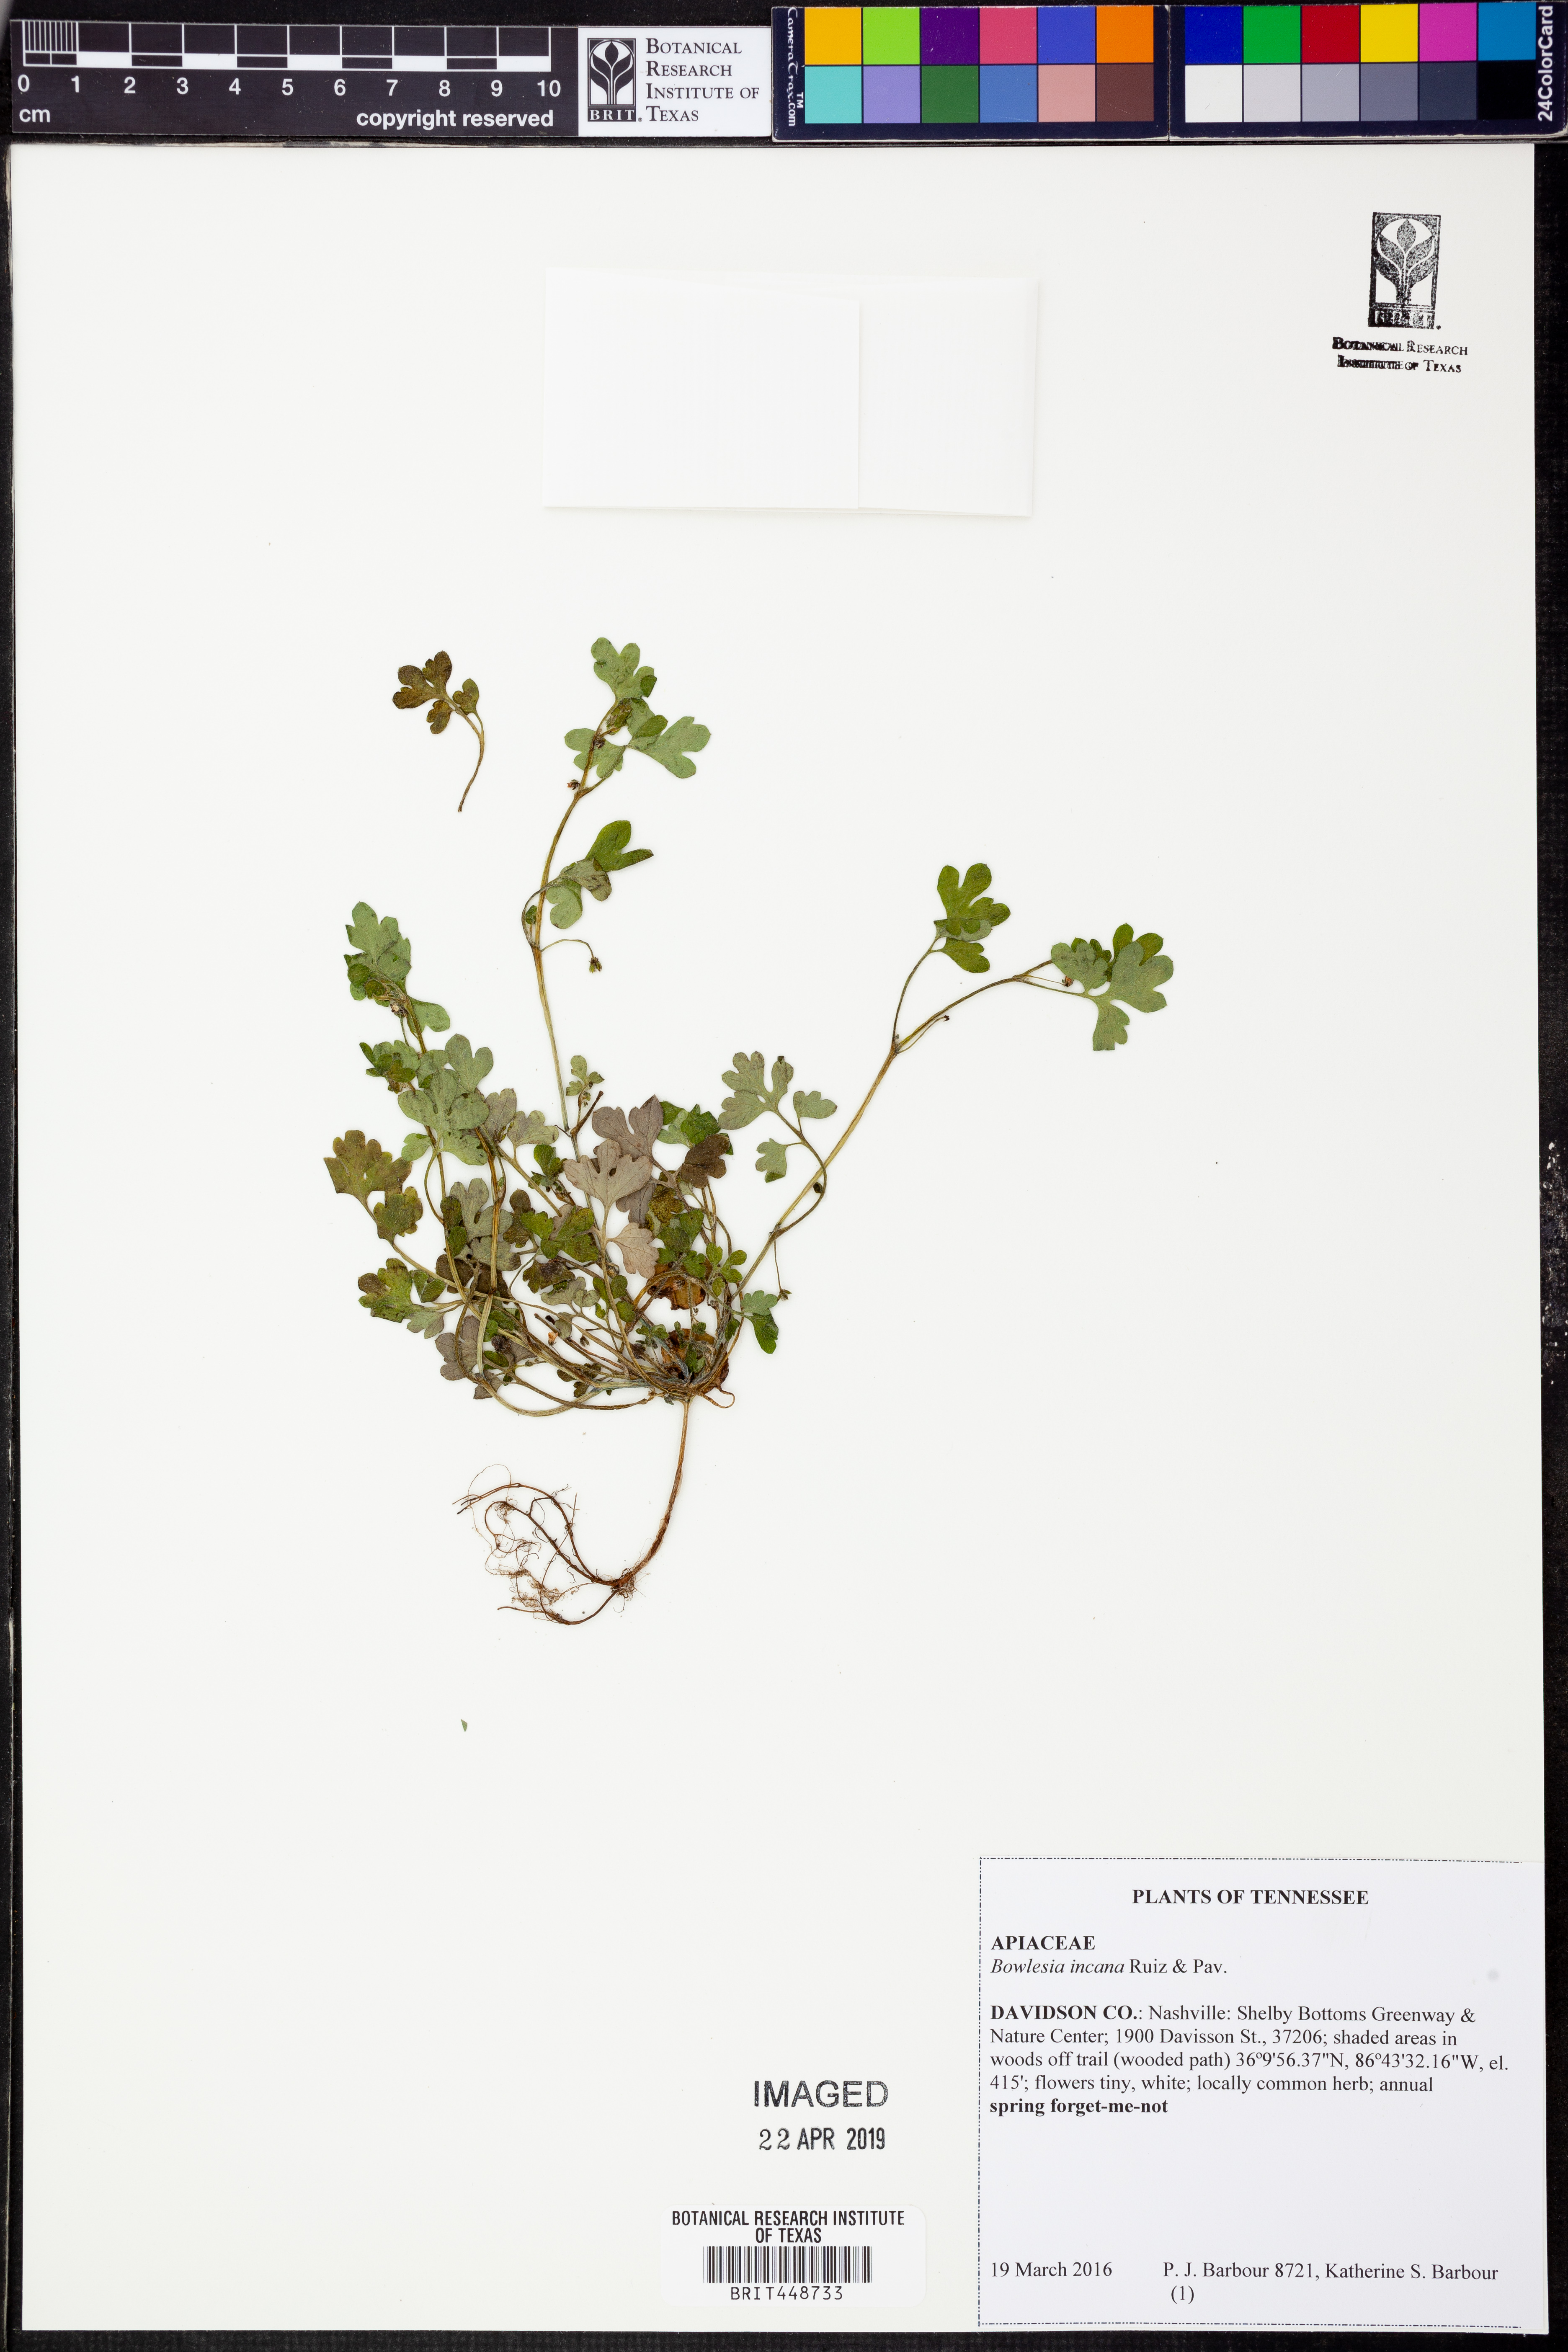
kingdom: Plantae
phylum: Tracheophyta
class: Magnoliopsida
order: Apiales
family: Apiaceae
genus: Bowlesia
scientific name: Bowlesia incana
